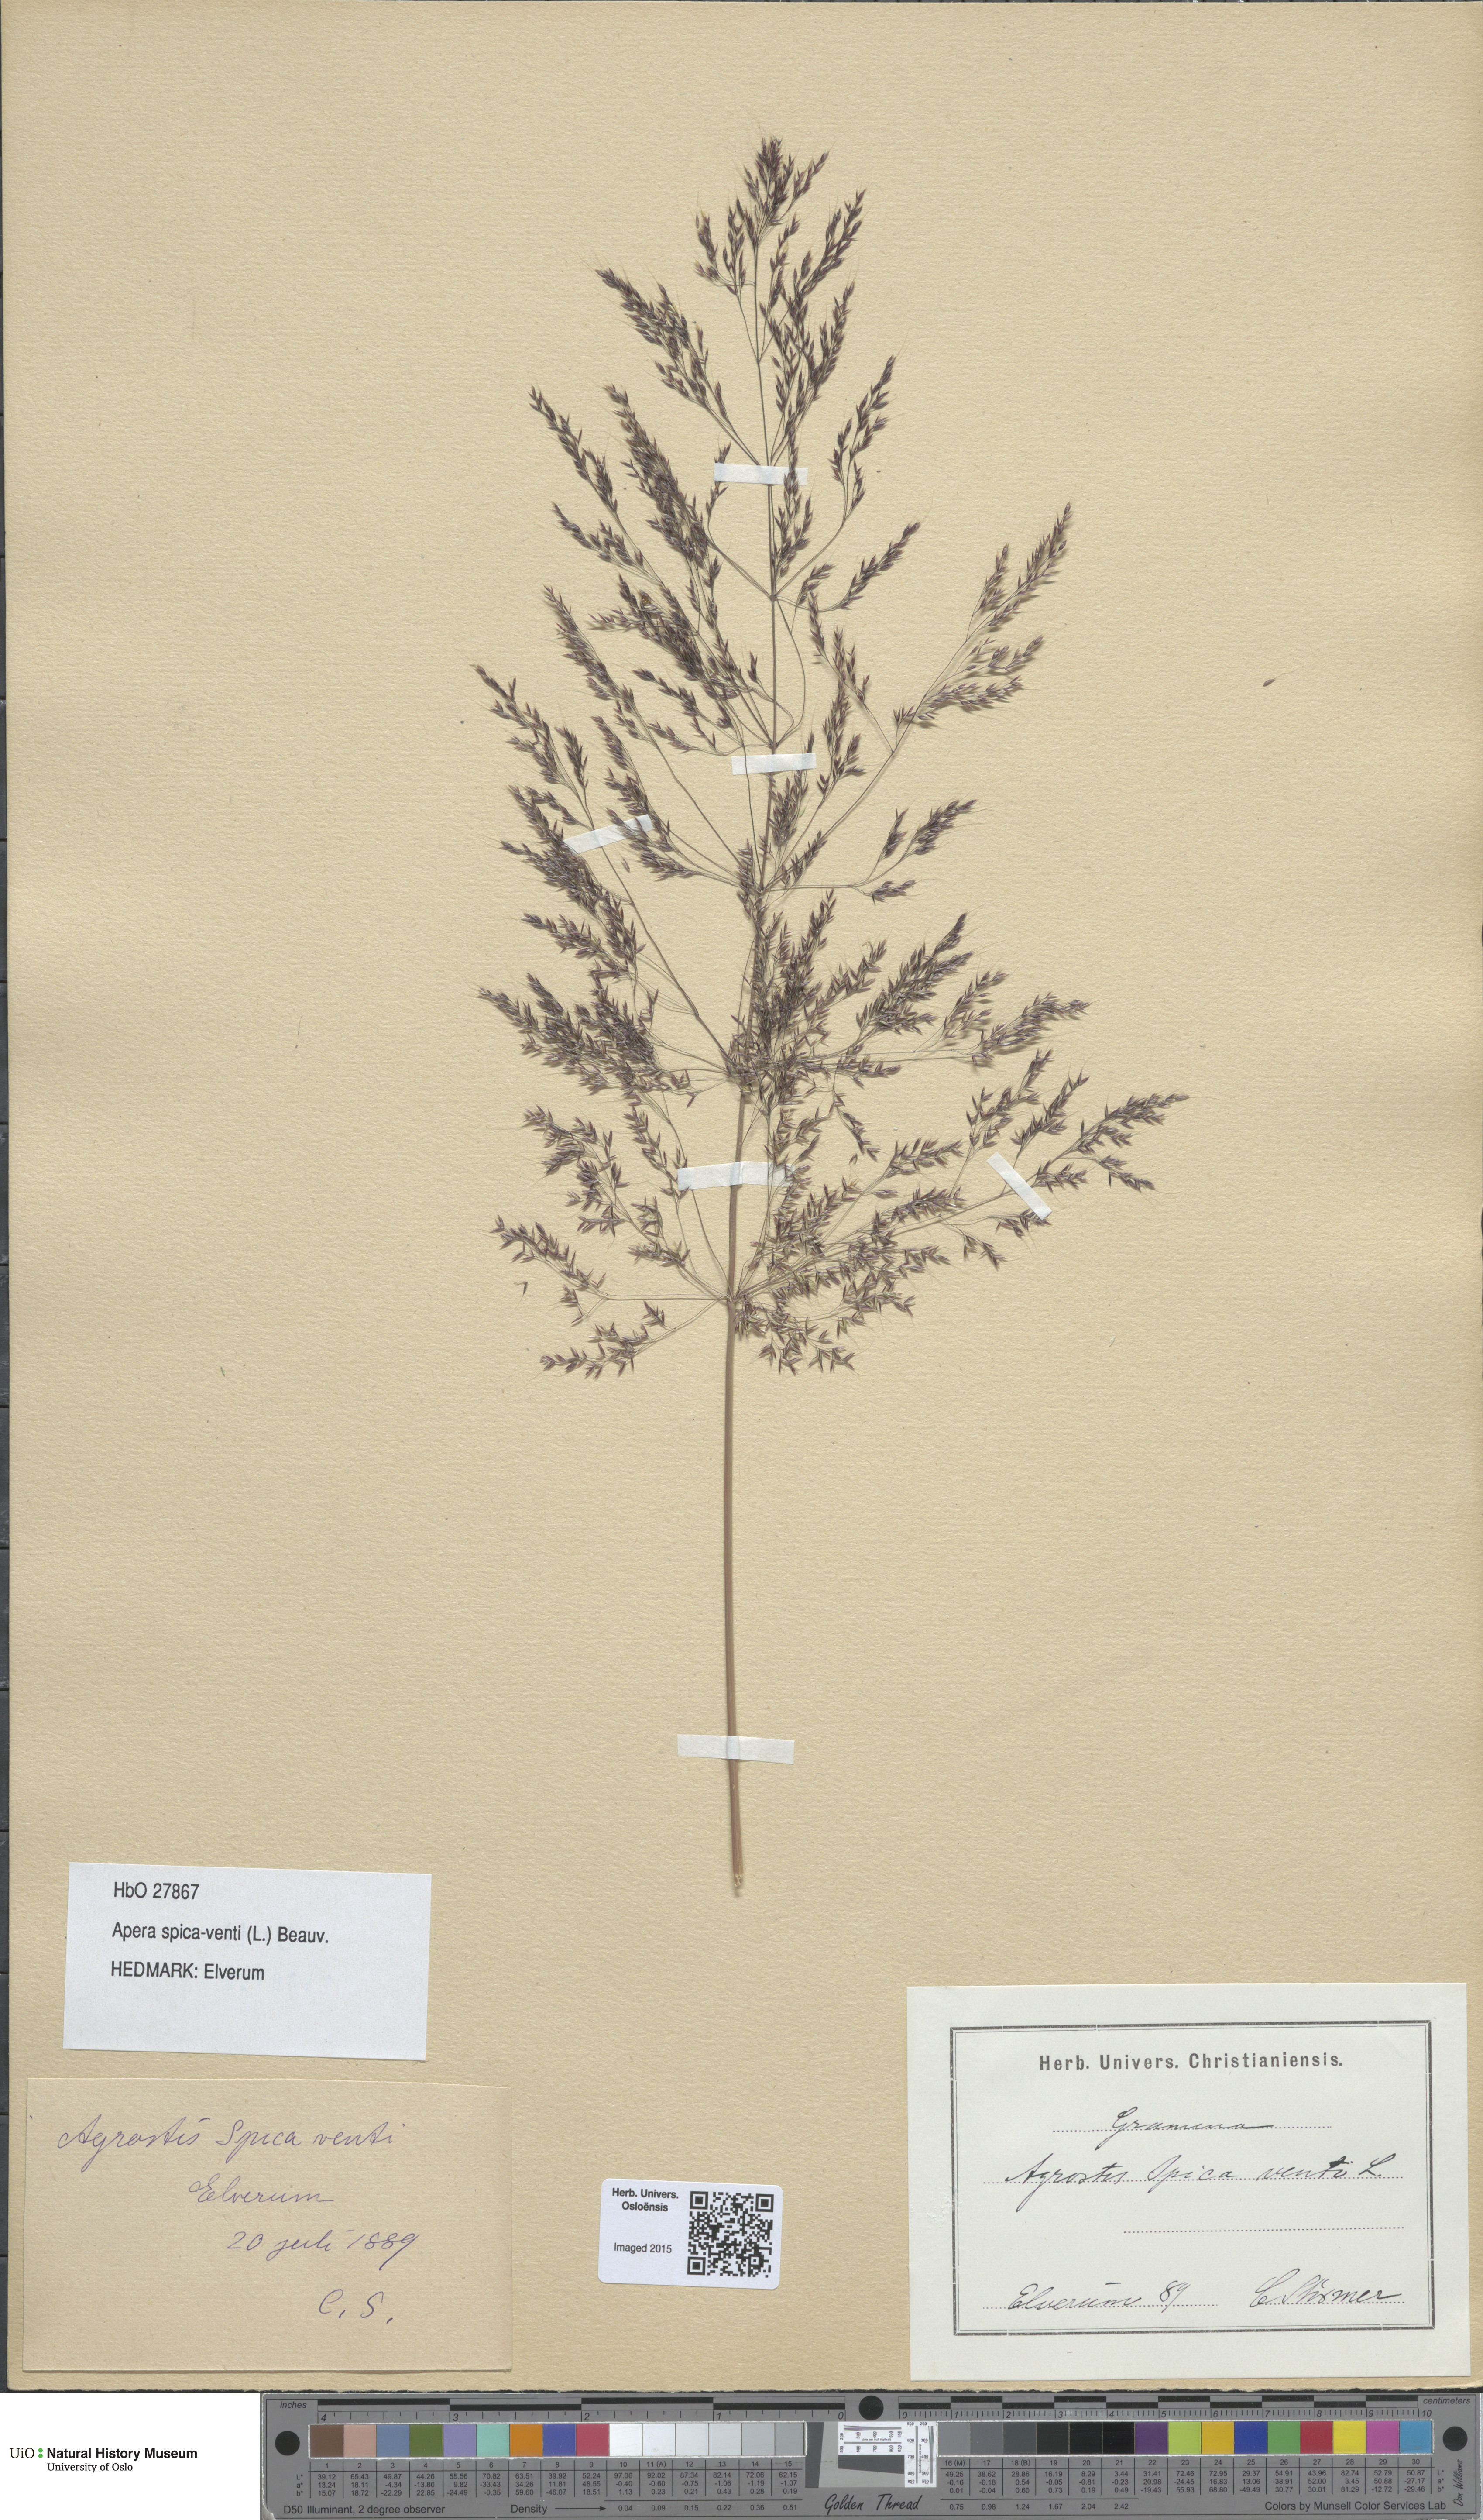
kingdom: Plantae
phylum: Tracheophyta
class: Liliopsida
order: Poales
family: Poaceae
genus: Apera
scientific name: Apera spica-venti
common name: Loose silky-bent
